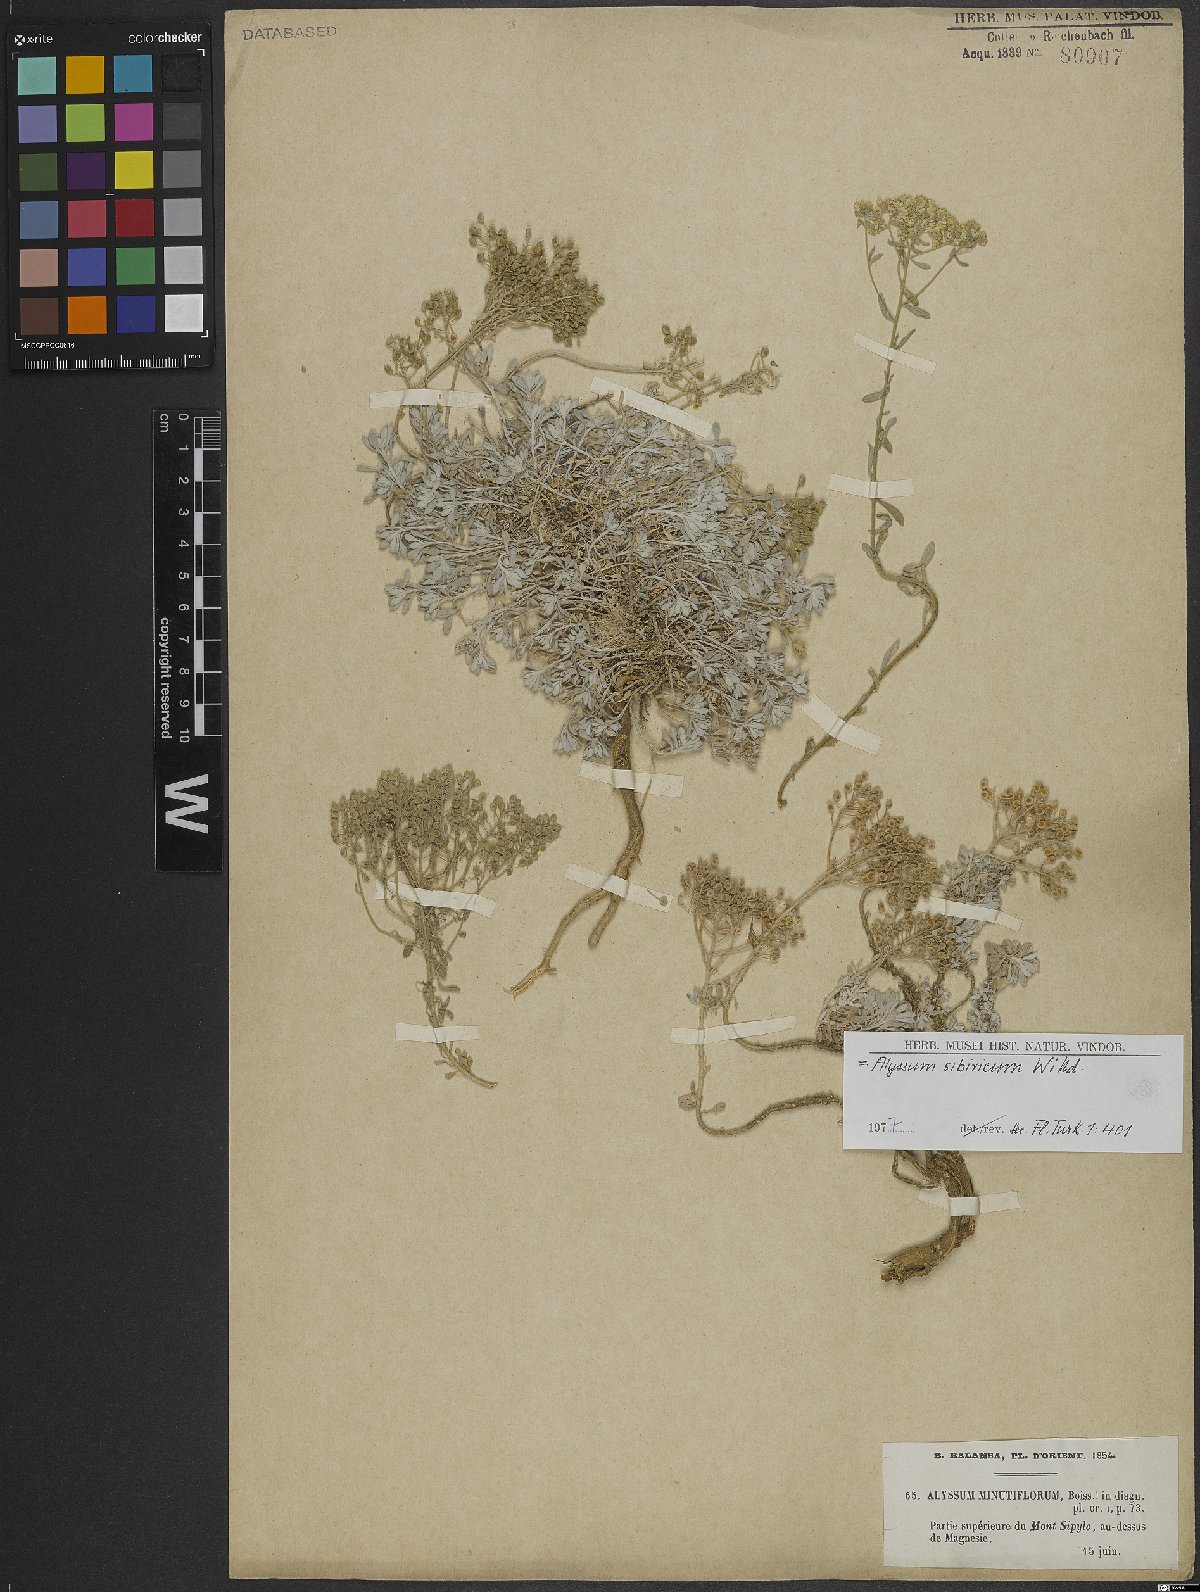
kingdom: Plantae
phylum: Tracheophyta
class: Magnoliopsida
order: Brassicales
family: Brassicaceae
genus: Odontarrhena
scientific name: Odontarrhena sibirica
